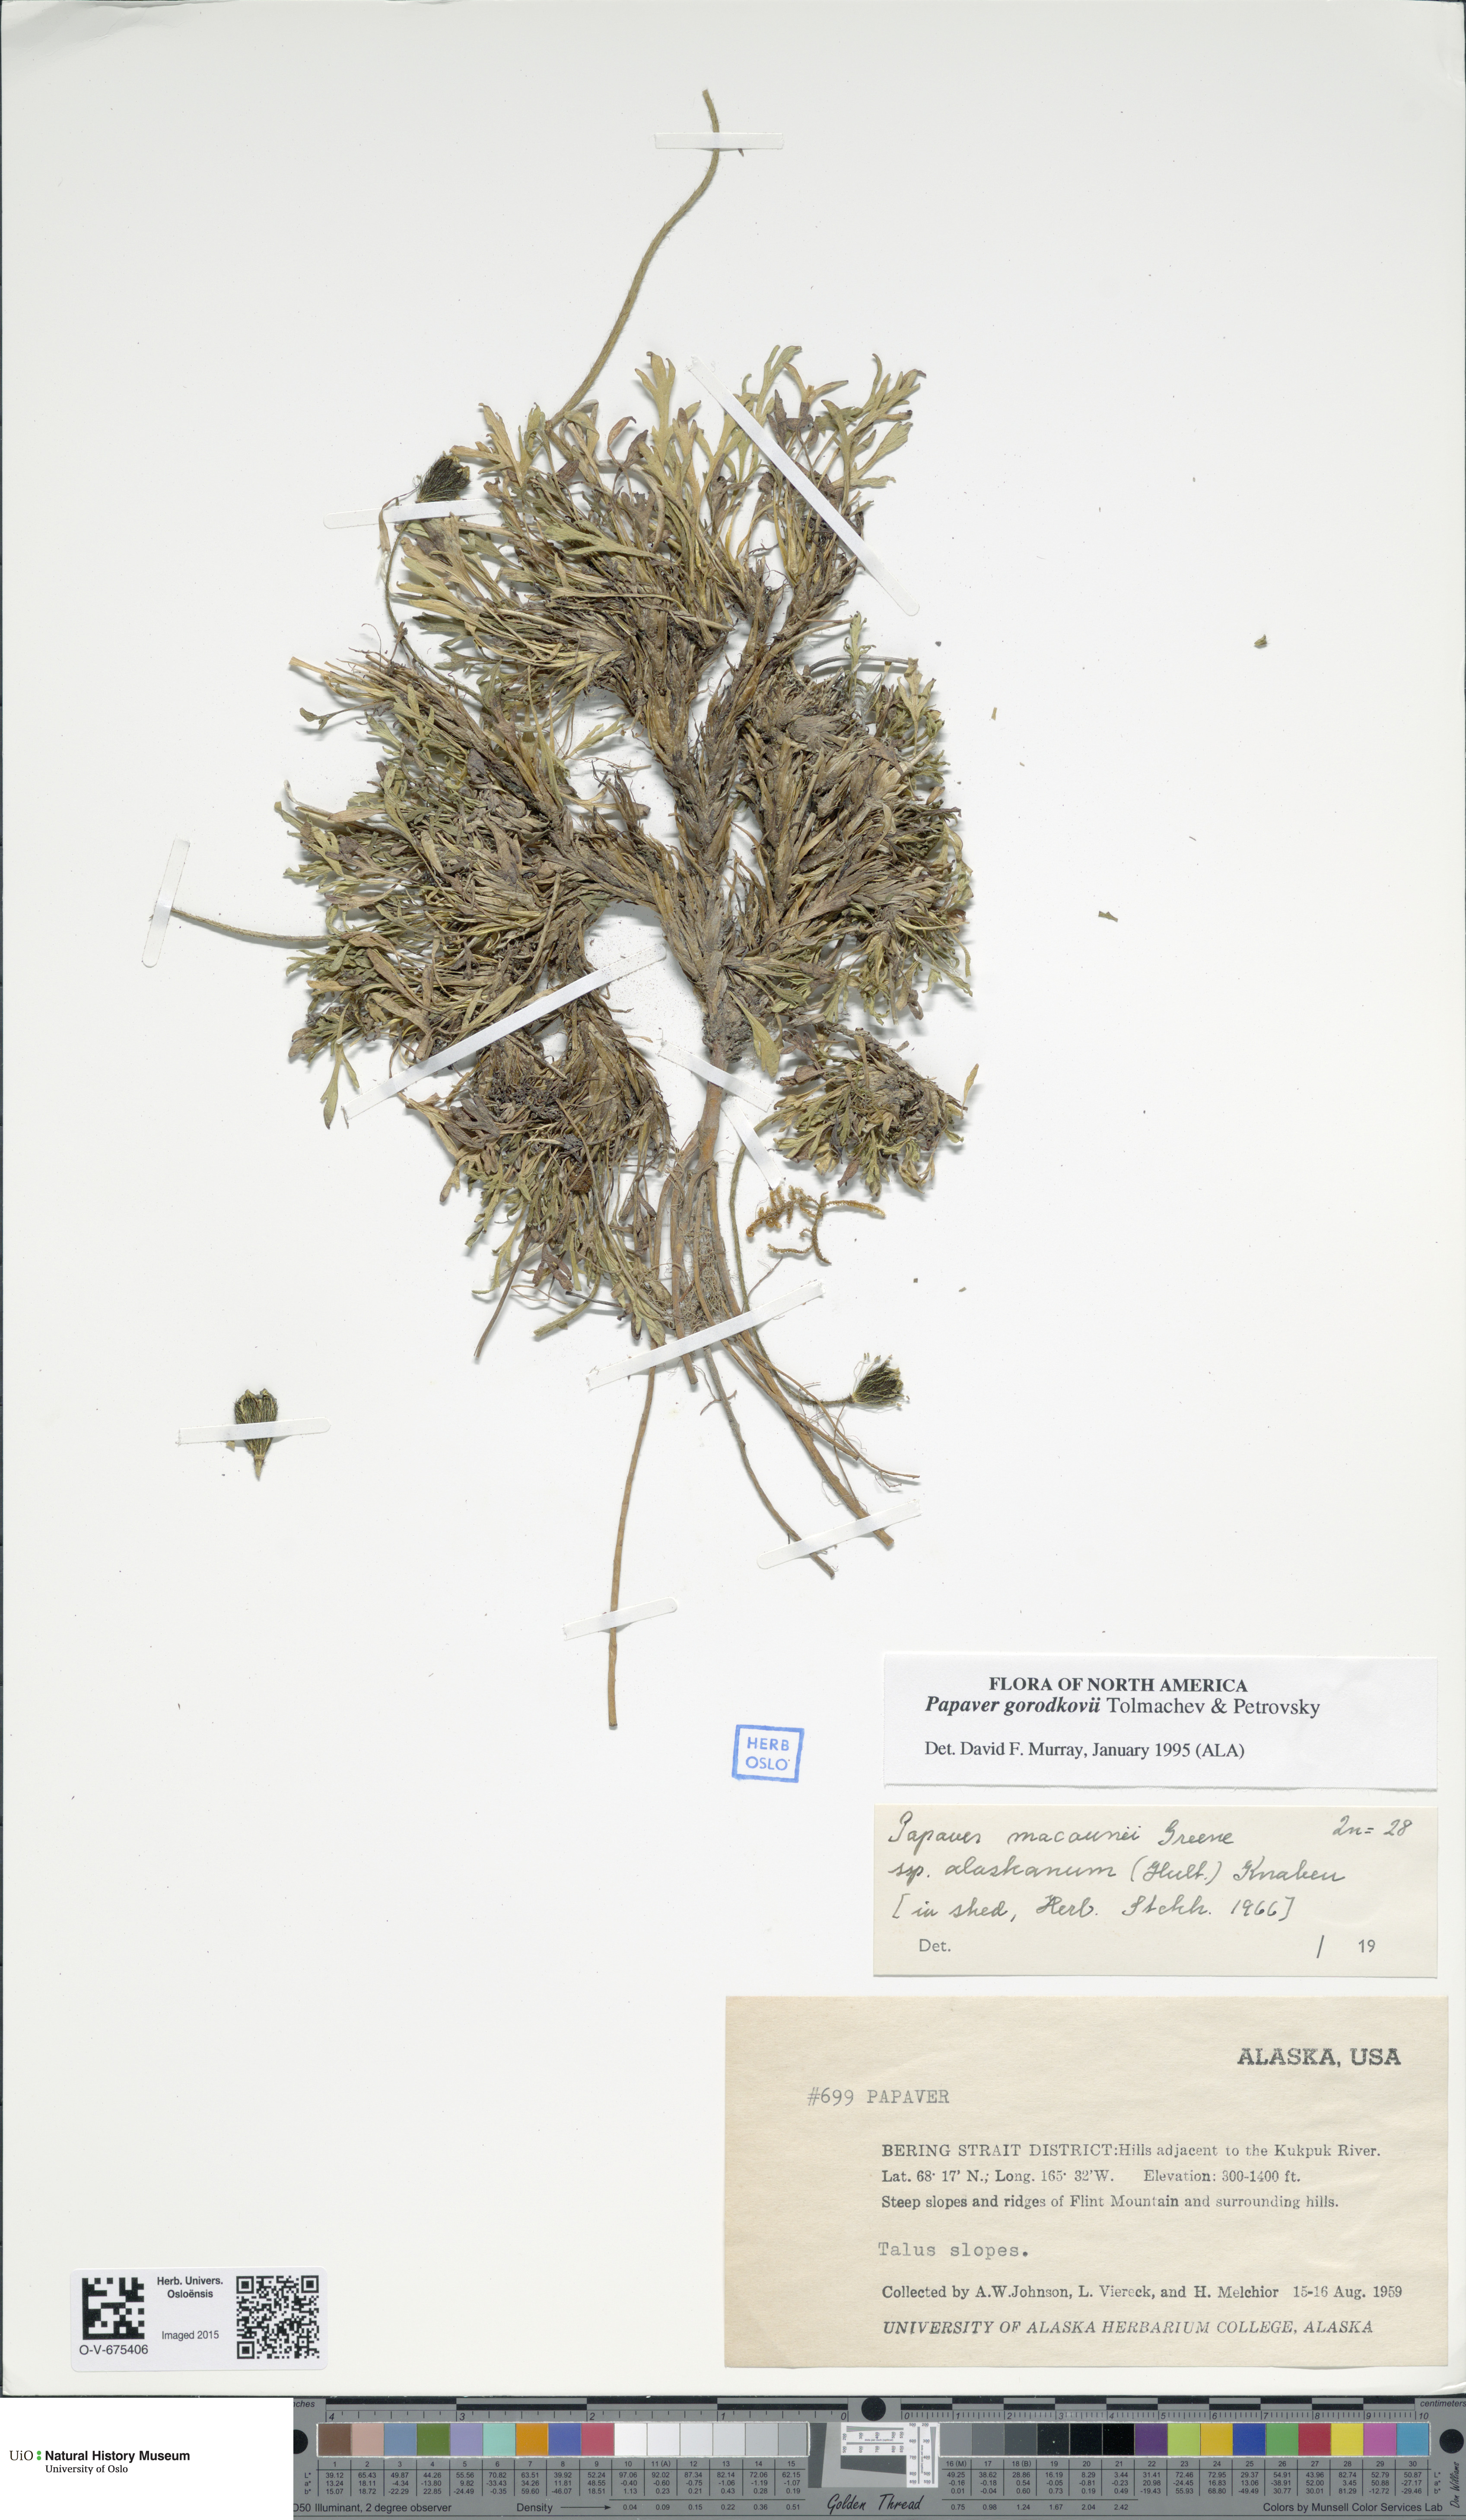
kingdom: Plantae
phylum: Tracheophyta
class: Magnoliopsida
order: Ranunculales
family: Papaveraceae
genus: Papaver
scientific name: Papaver gorodkovii
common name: Gorodkov's poppy
